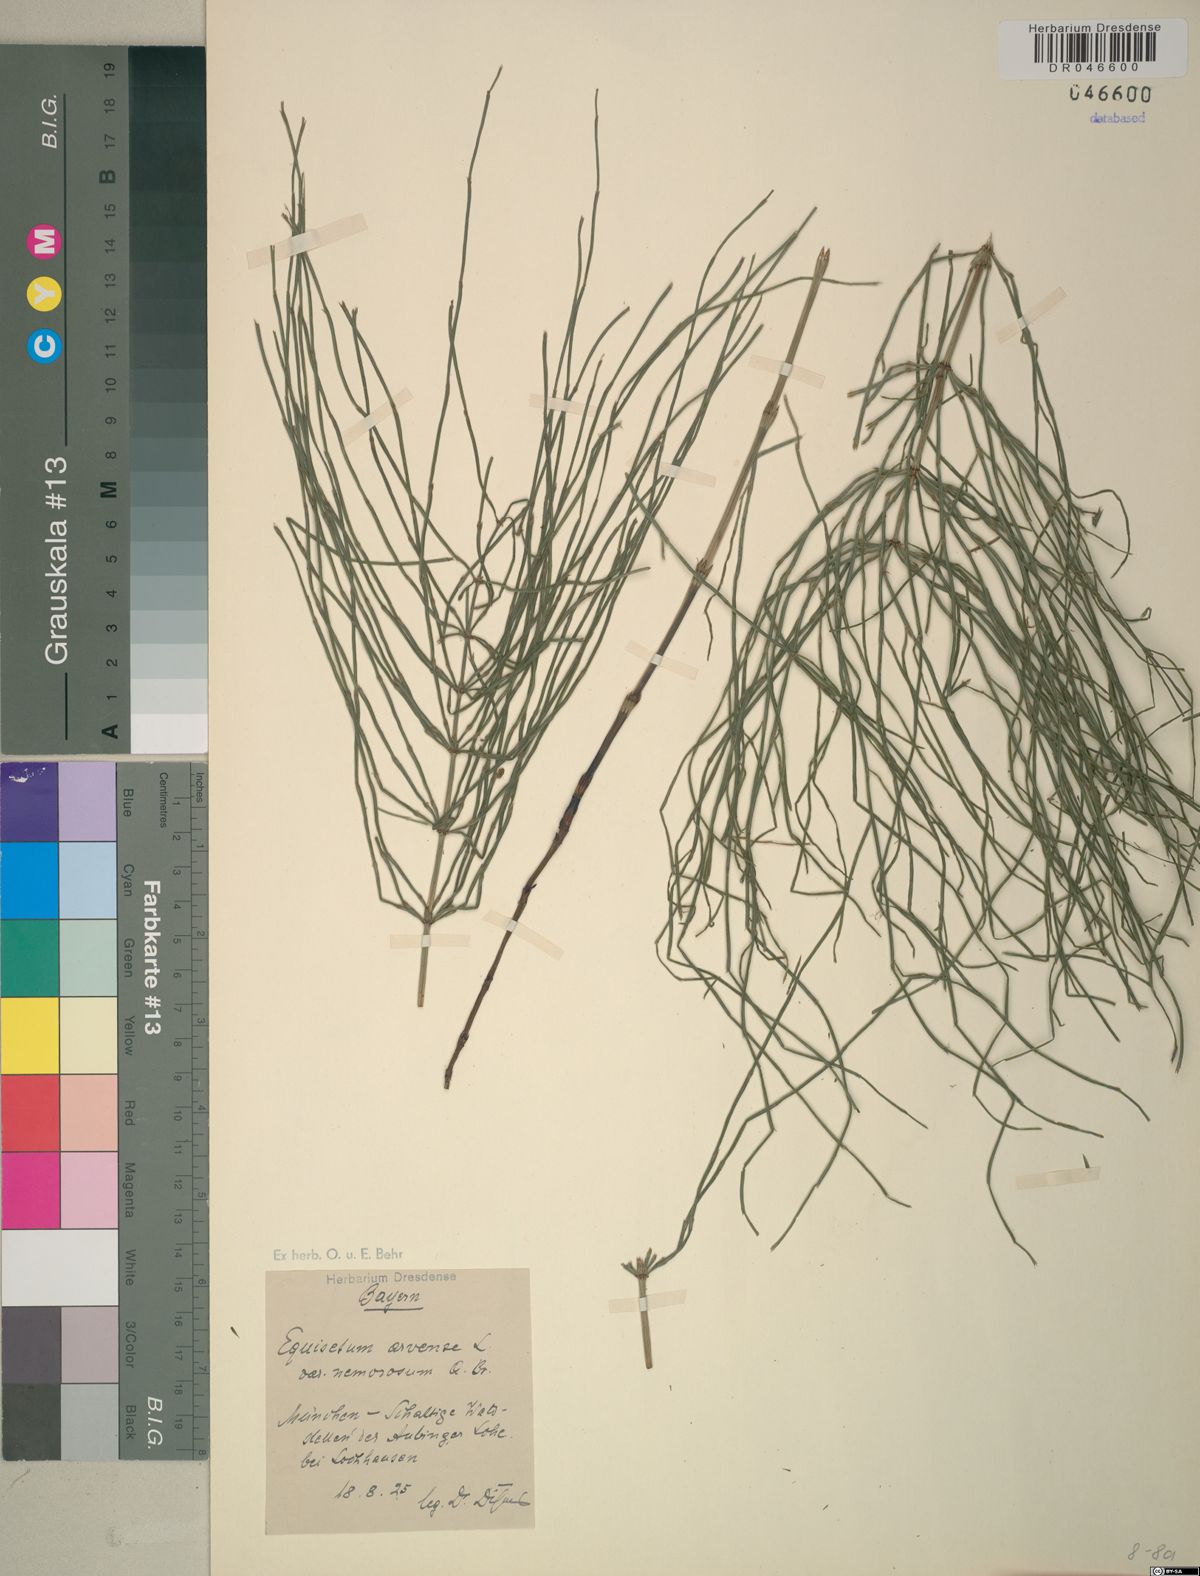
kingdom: Plantae
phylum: Tracheophyta
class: Polypodiopsida
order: Equisetales
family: Equisetaceae
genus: Equisetum
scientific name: Equisetum arvense
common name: Field horsetail
